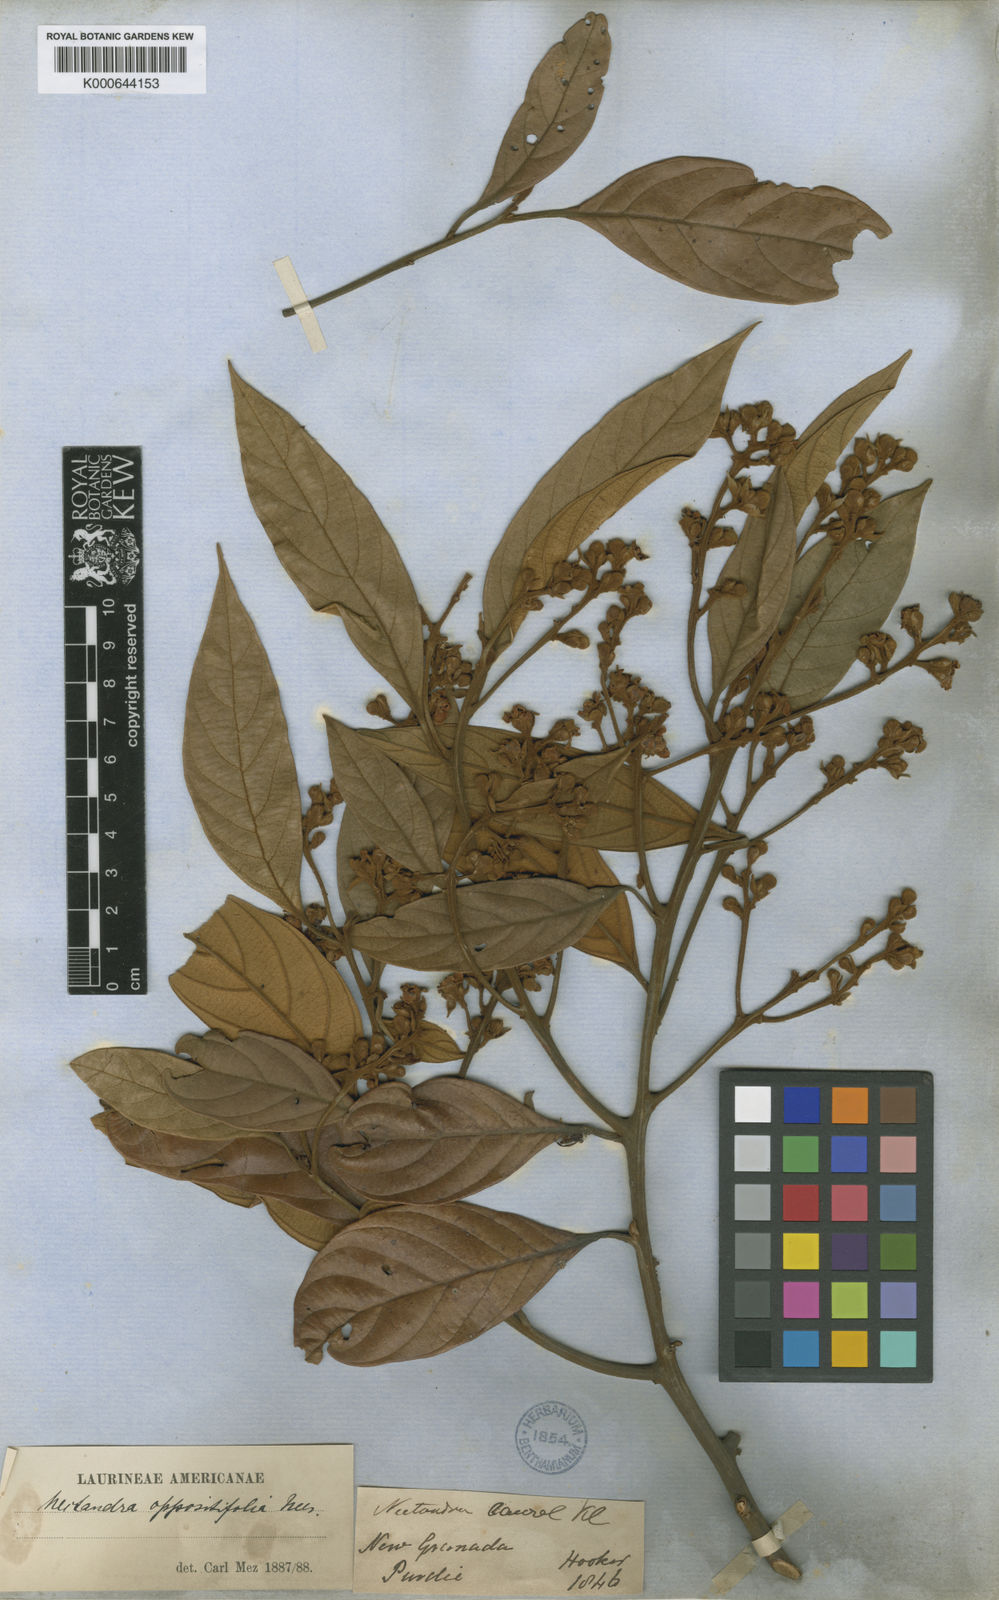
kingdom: Plantae
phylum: Tracheophyta
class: Magnoliopsida
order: Laurales
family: Lauraceae
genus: Nectandra
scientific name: Nectandra oppositifolia
